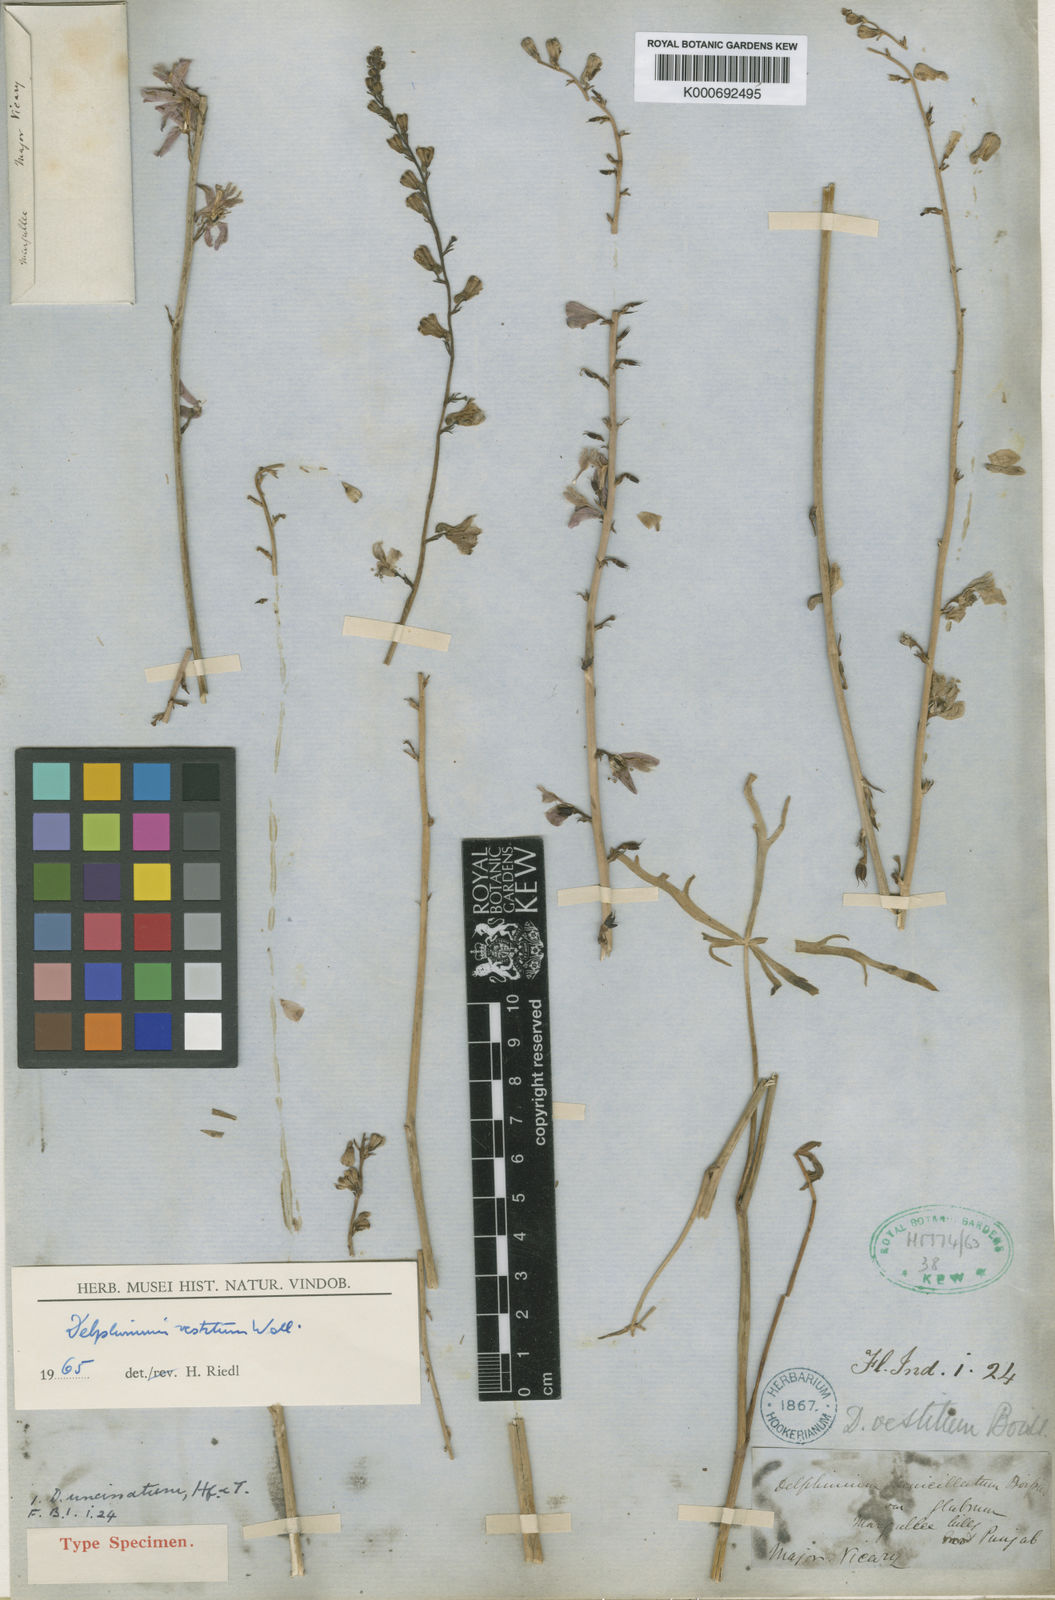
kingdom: Plantae
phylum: Tracheophyta
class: Magnoliopsida
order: Ranunculales
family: Ranunculaceae
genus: Delphinium
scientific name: Delphinium uncinatum
